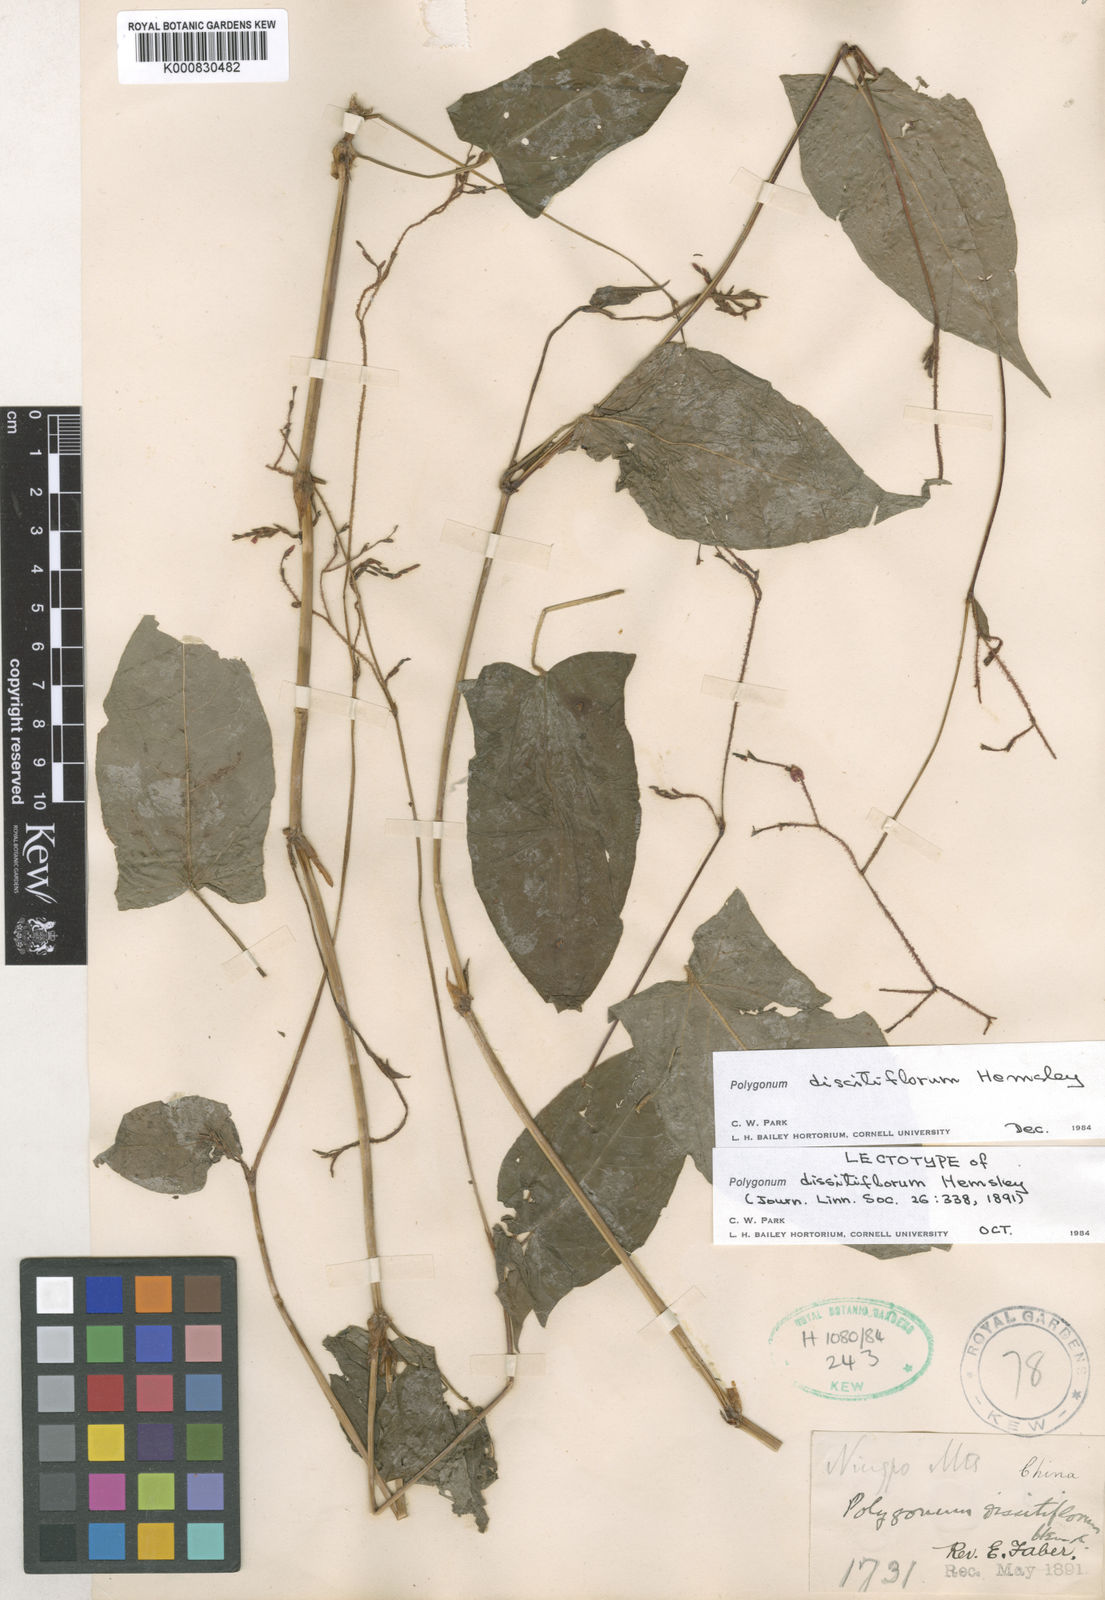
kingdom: Plantae
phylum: Tracheophyta
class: Magnoliopsida
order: Caryophyllales
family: Polygonaceae
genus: Persicaria
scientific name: Persicaria dissitiflora
